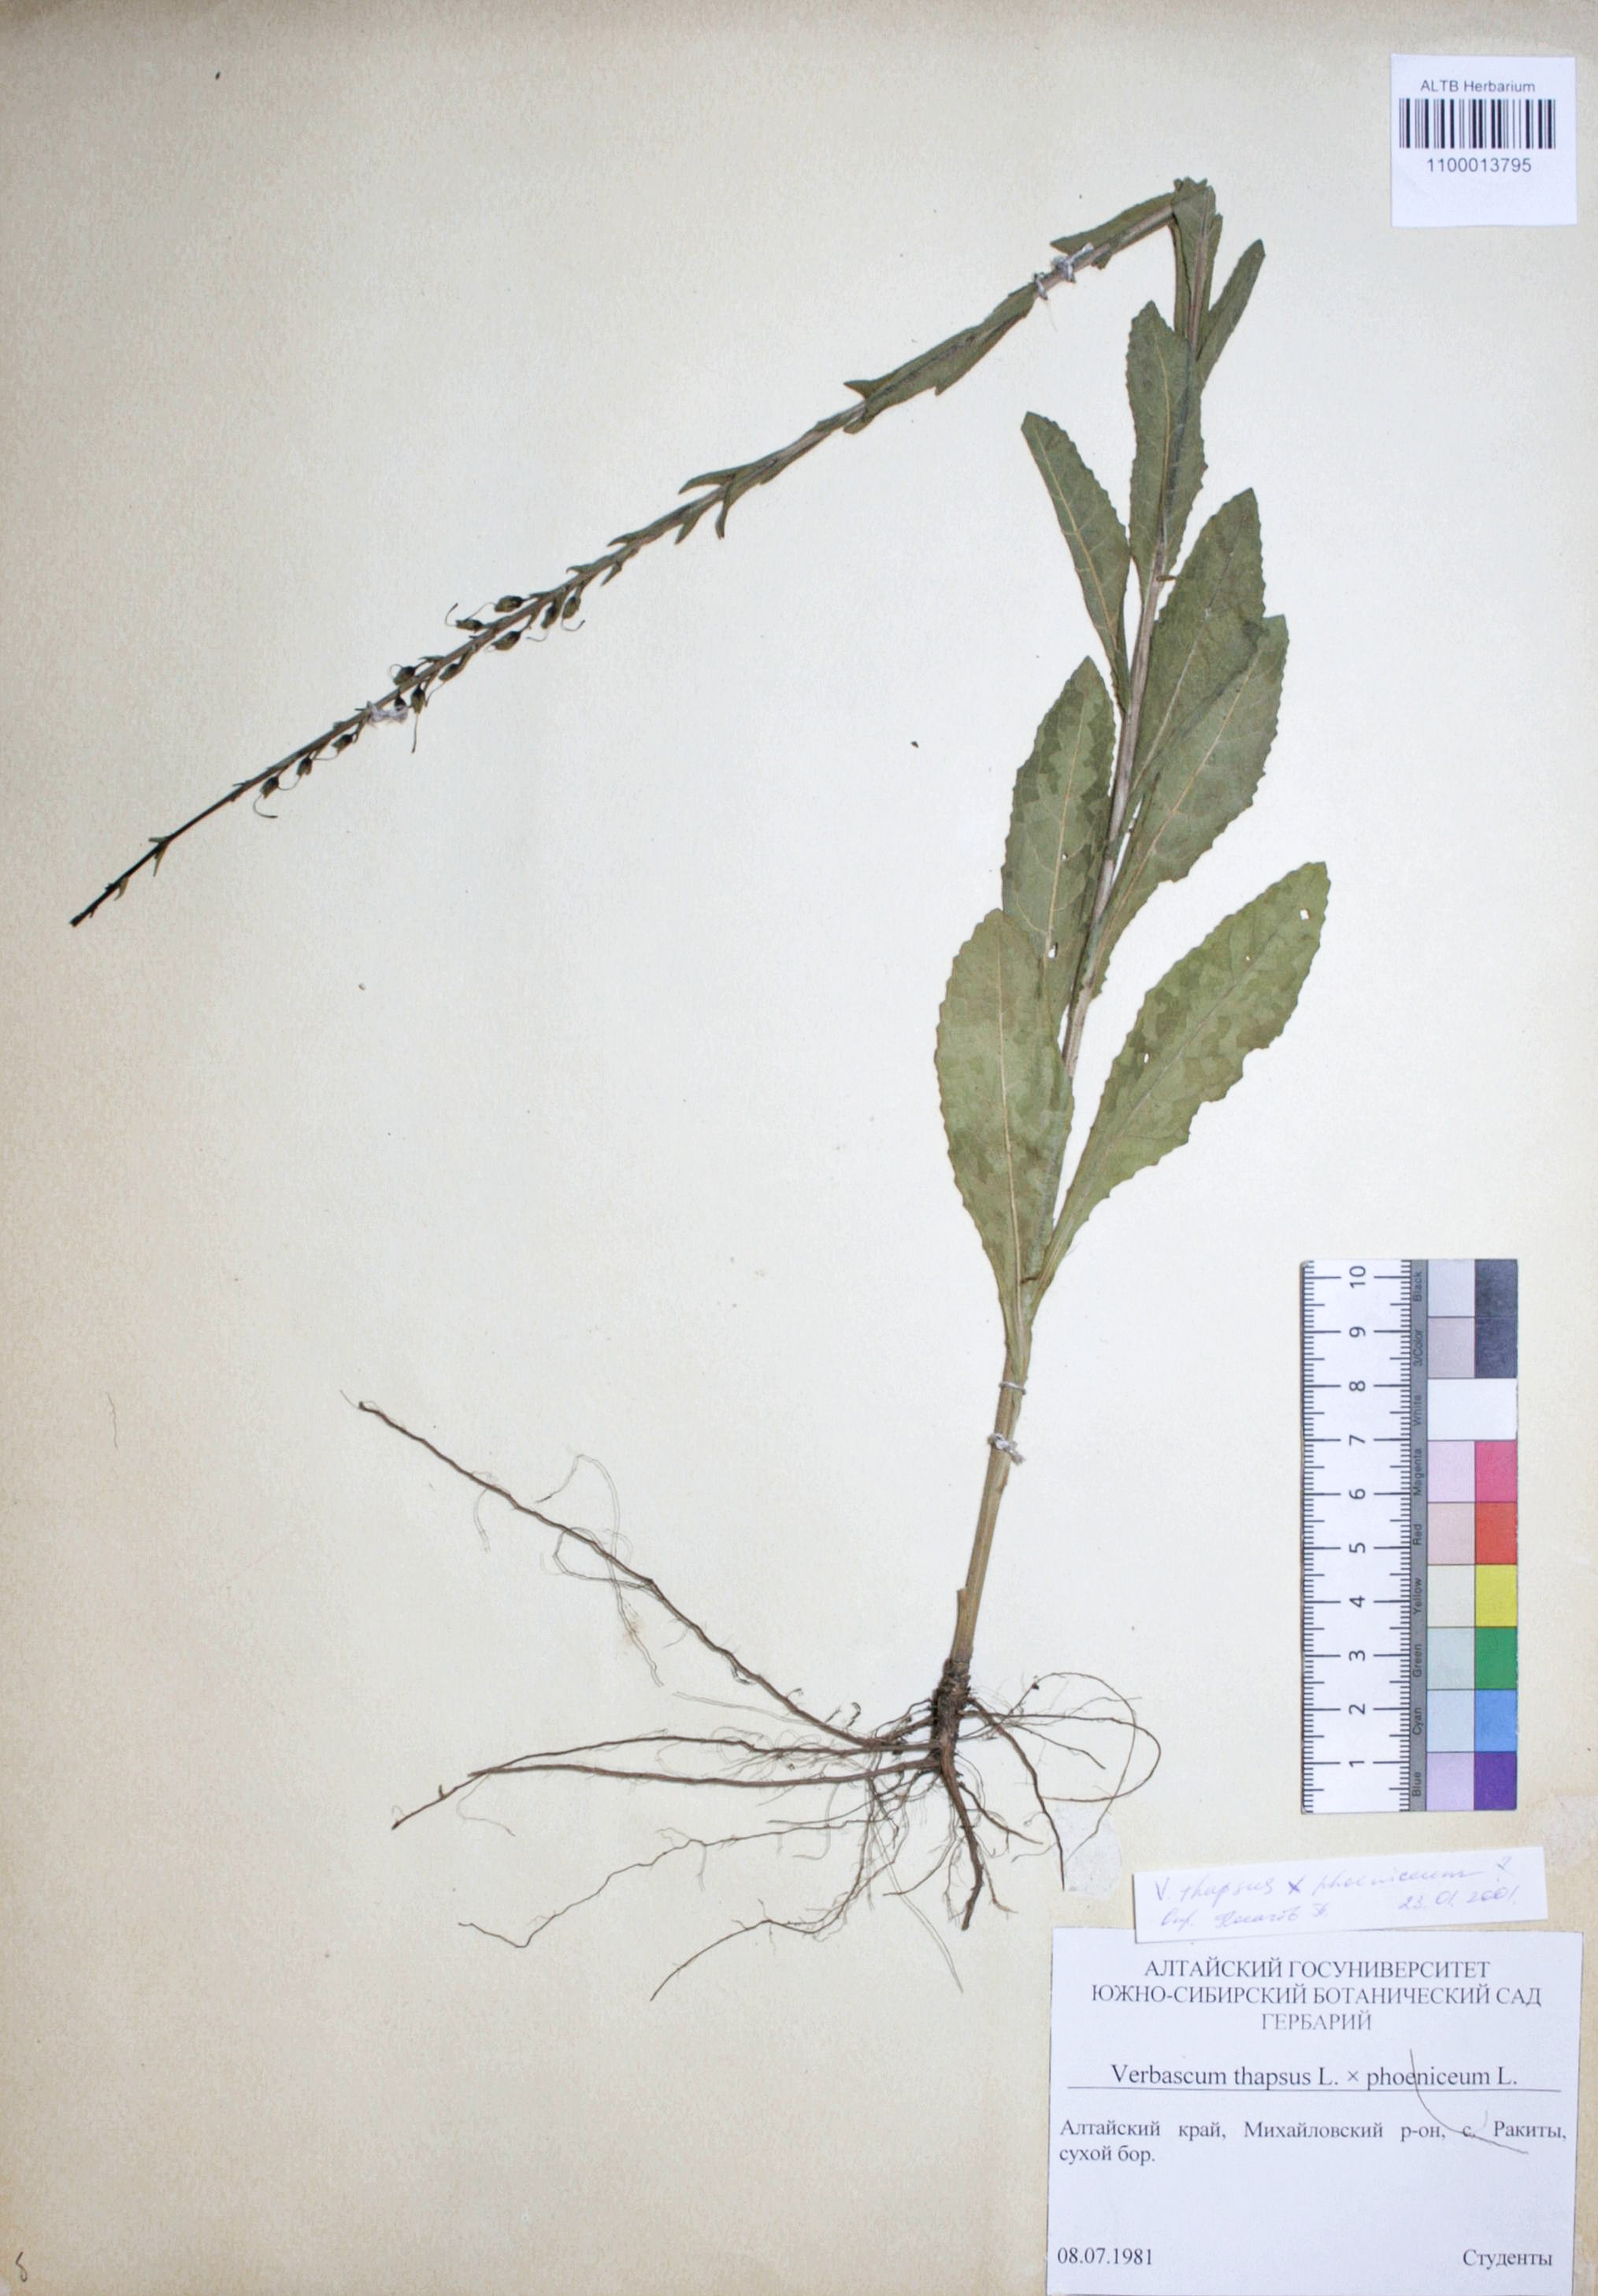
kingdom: Plantae
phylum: Tracheophyta
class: Magnoliopsida
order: Lamiales
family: Scrophulariaceae
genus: Verbascum
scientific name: Verbascum thapsus
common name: Common mullein
